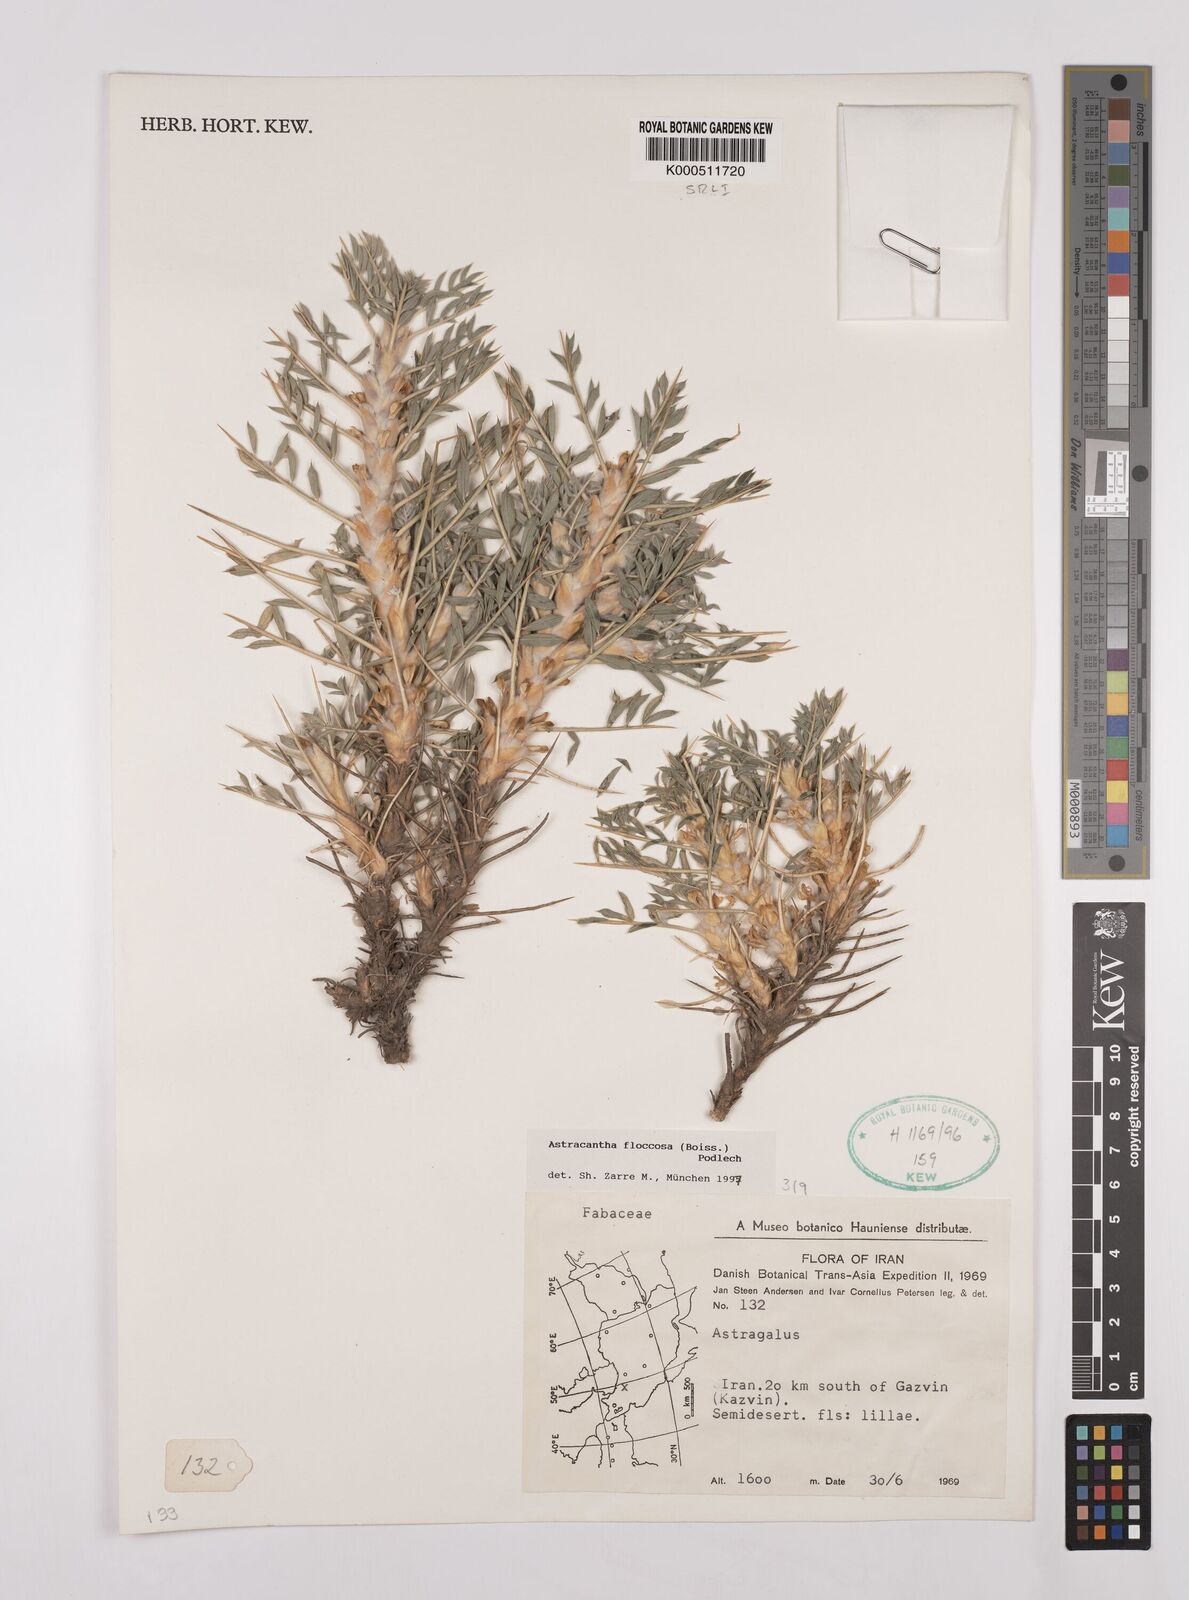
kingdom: Plantae
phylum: Tracheophyta
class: Magnoliopsida
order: Fabales
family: Fabaceae
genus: Astragalus
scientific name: Astragalus floccosus
